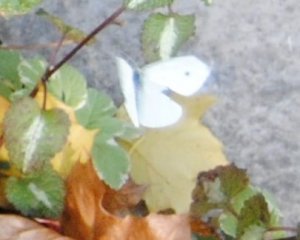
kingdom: Animalia
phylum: Arthropoda
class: Insecta
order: Lepidoptera
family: Pieridae
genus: Pieris
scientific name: Pieris rapae
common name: Cabbage White
